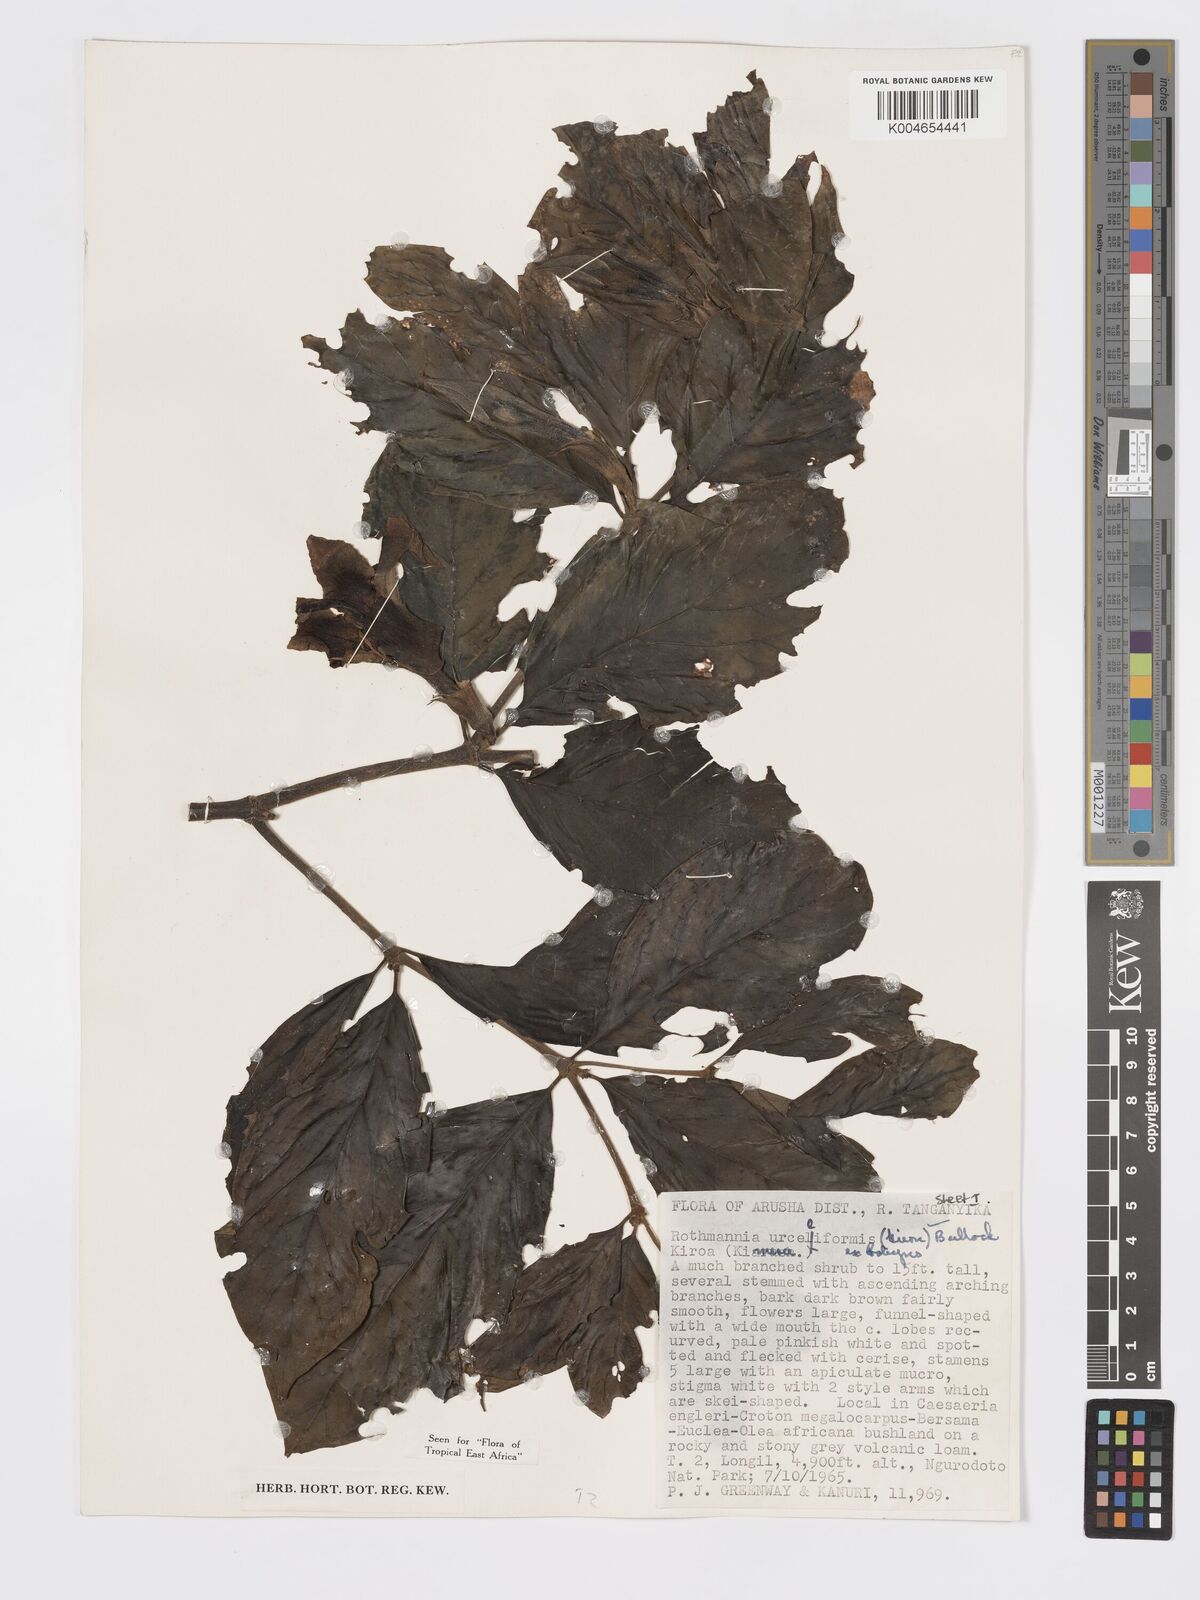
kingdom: Plantae
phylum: Tracheophyta
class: Magnoliopsida
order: Gentianales
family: Rubiaceae
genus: Rothmannia
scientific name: Rothmannia urcelliformis
